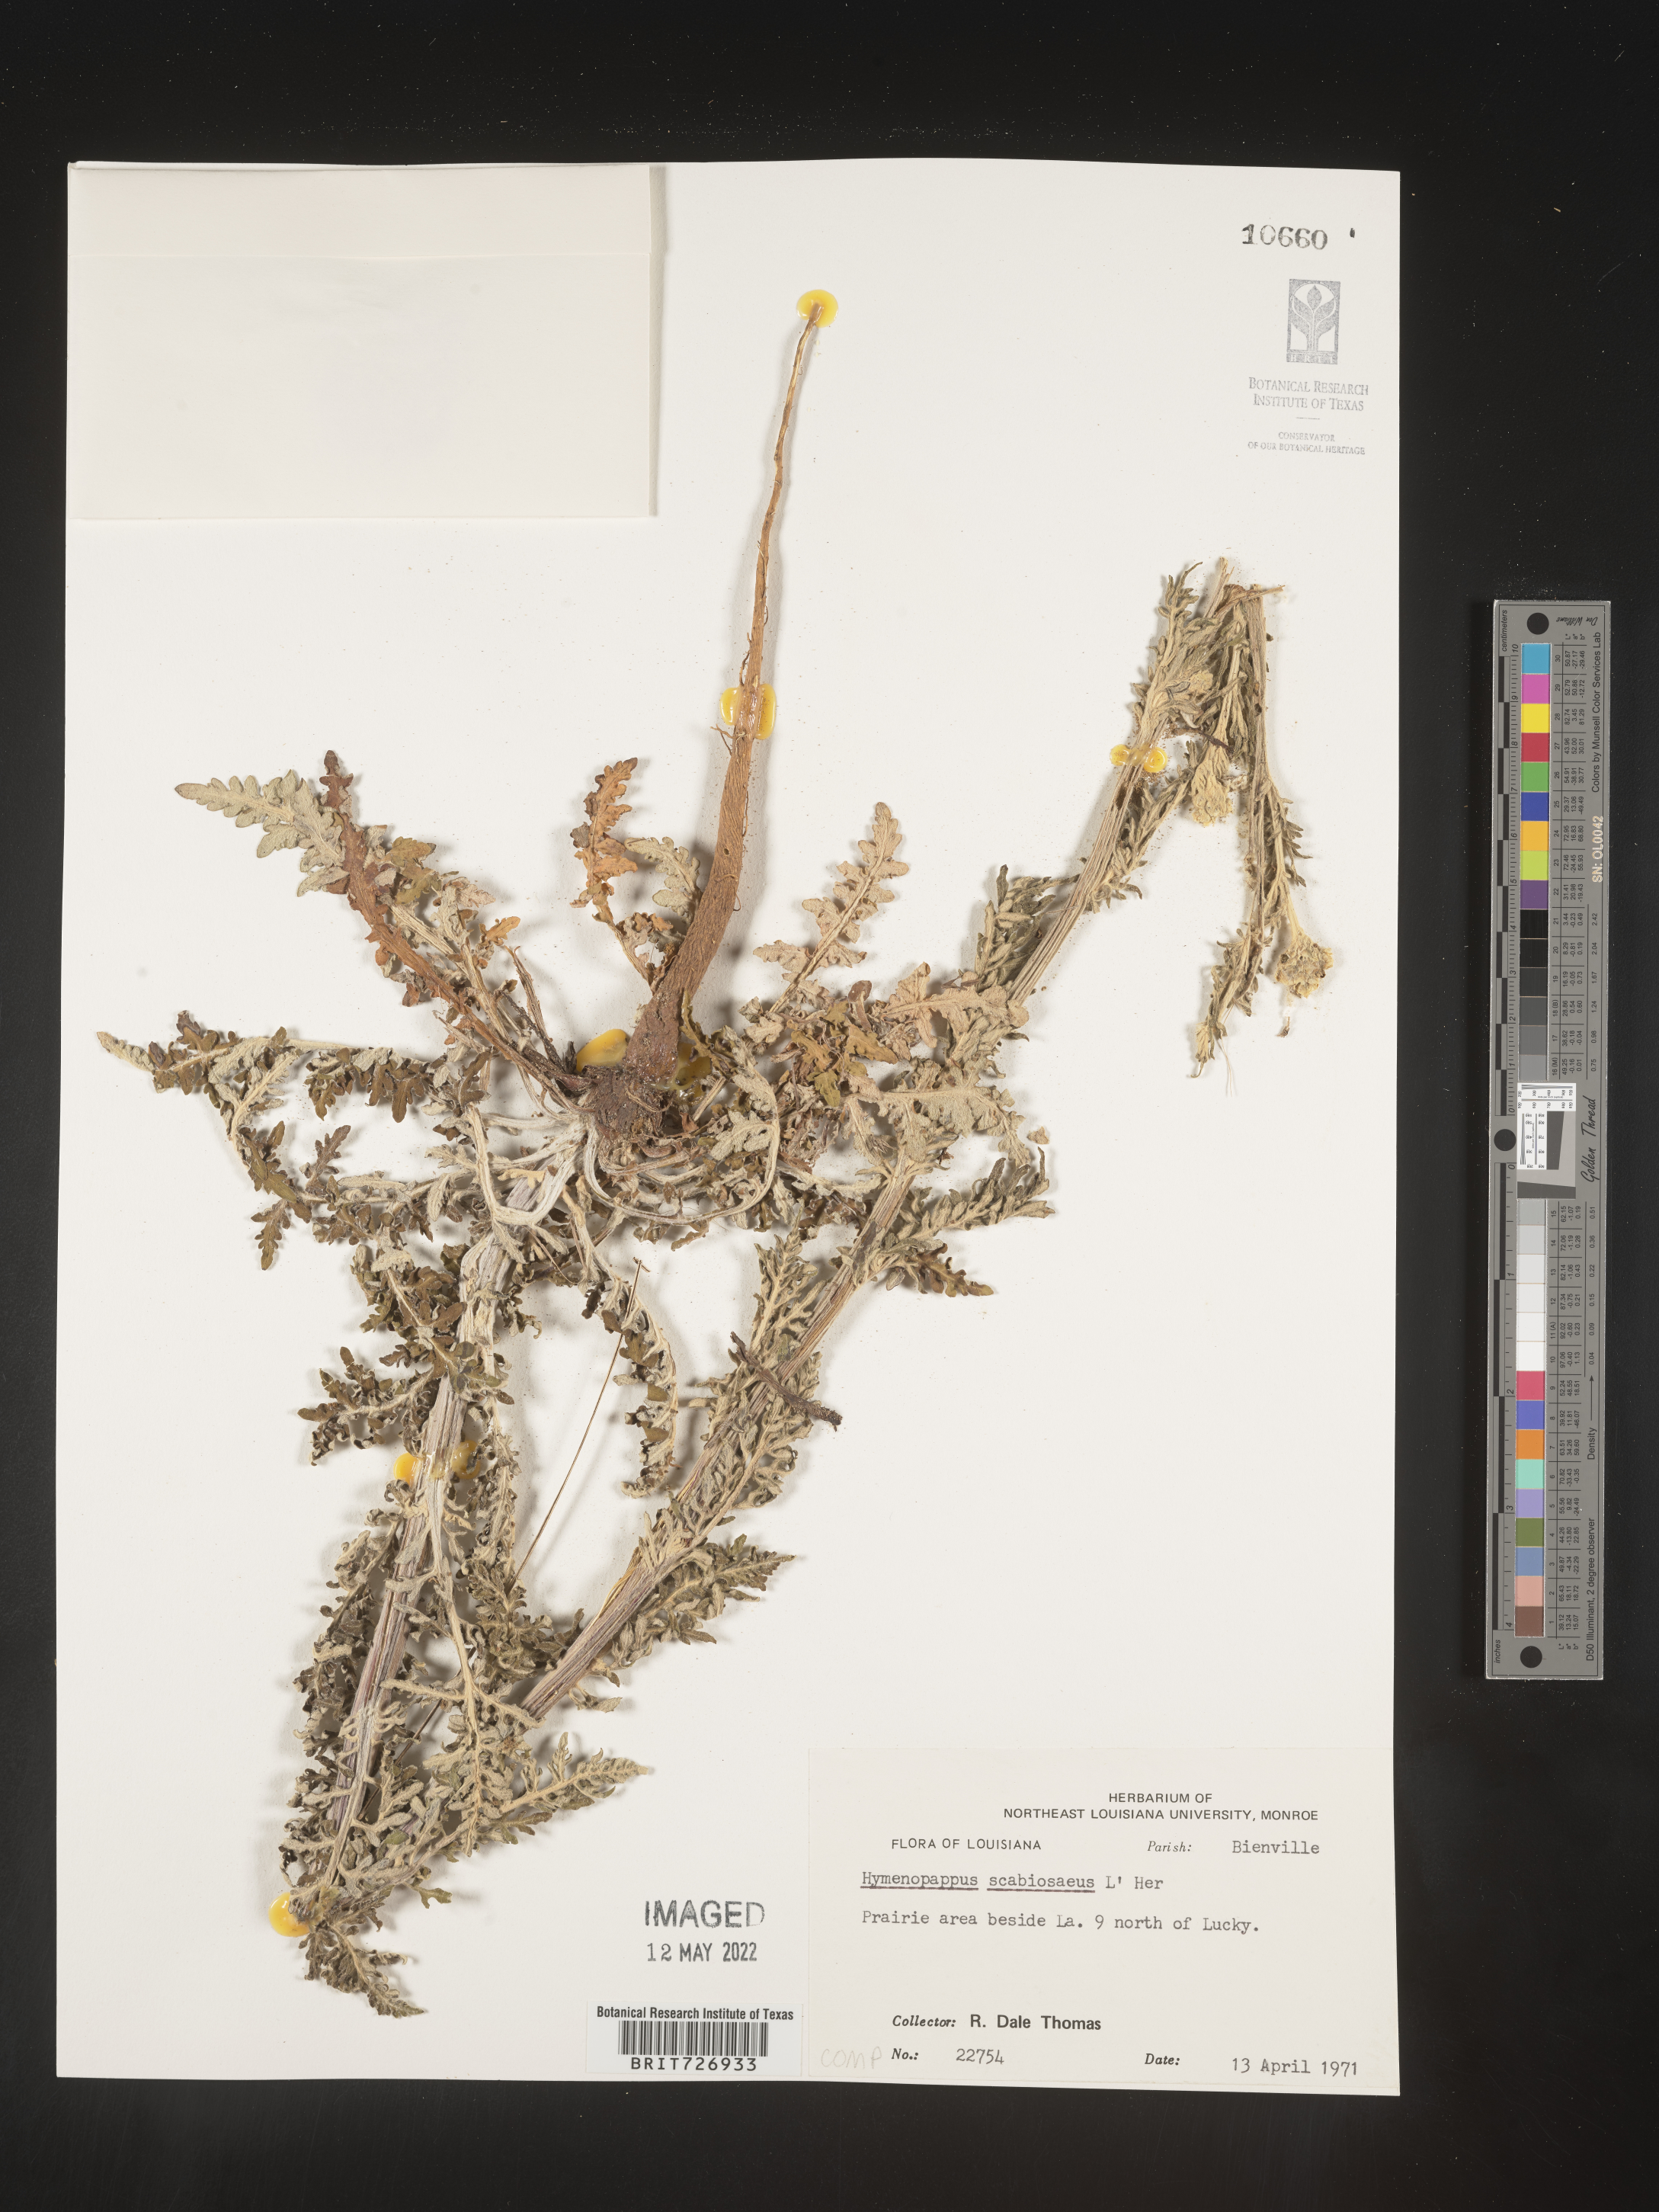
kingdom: Plantae
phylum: Tracheophyta
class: Magnoliopsida
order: Asterales
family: Asteraceae
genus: Hymenopappus
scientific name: Hymenopappus scabiosaeus
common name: Carolina woollywhite
